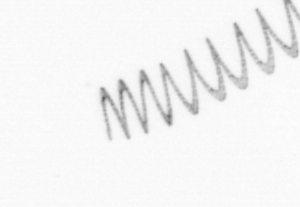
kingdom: Chromista
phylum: Ochrophyta
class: Bacillariophyceae
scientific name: Bacillariophyceae
